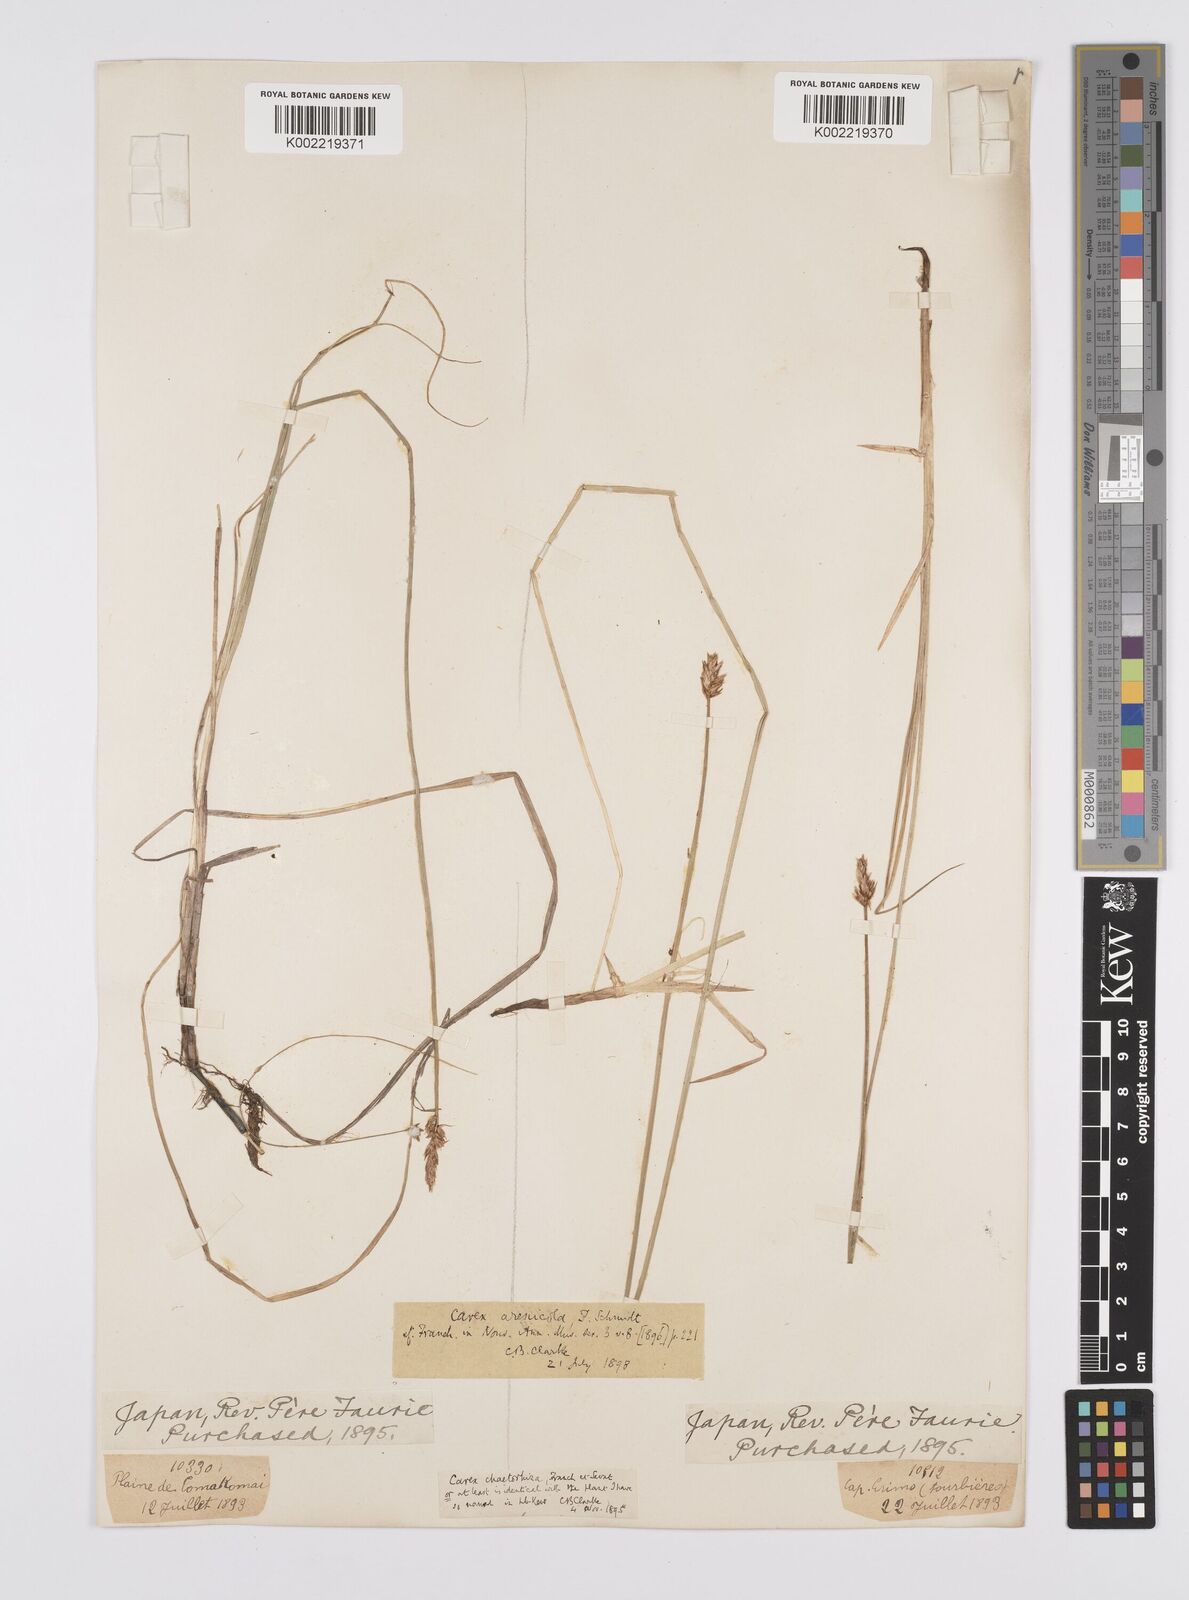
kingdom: Plantae
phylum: Tracheophyta
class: Liliopsida
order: Poales
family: Cyperaceae
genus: Carex
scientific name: Carex arenicola
